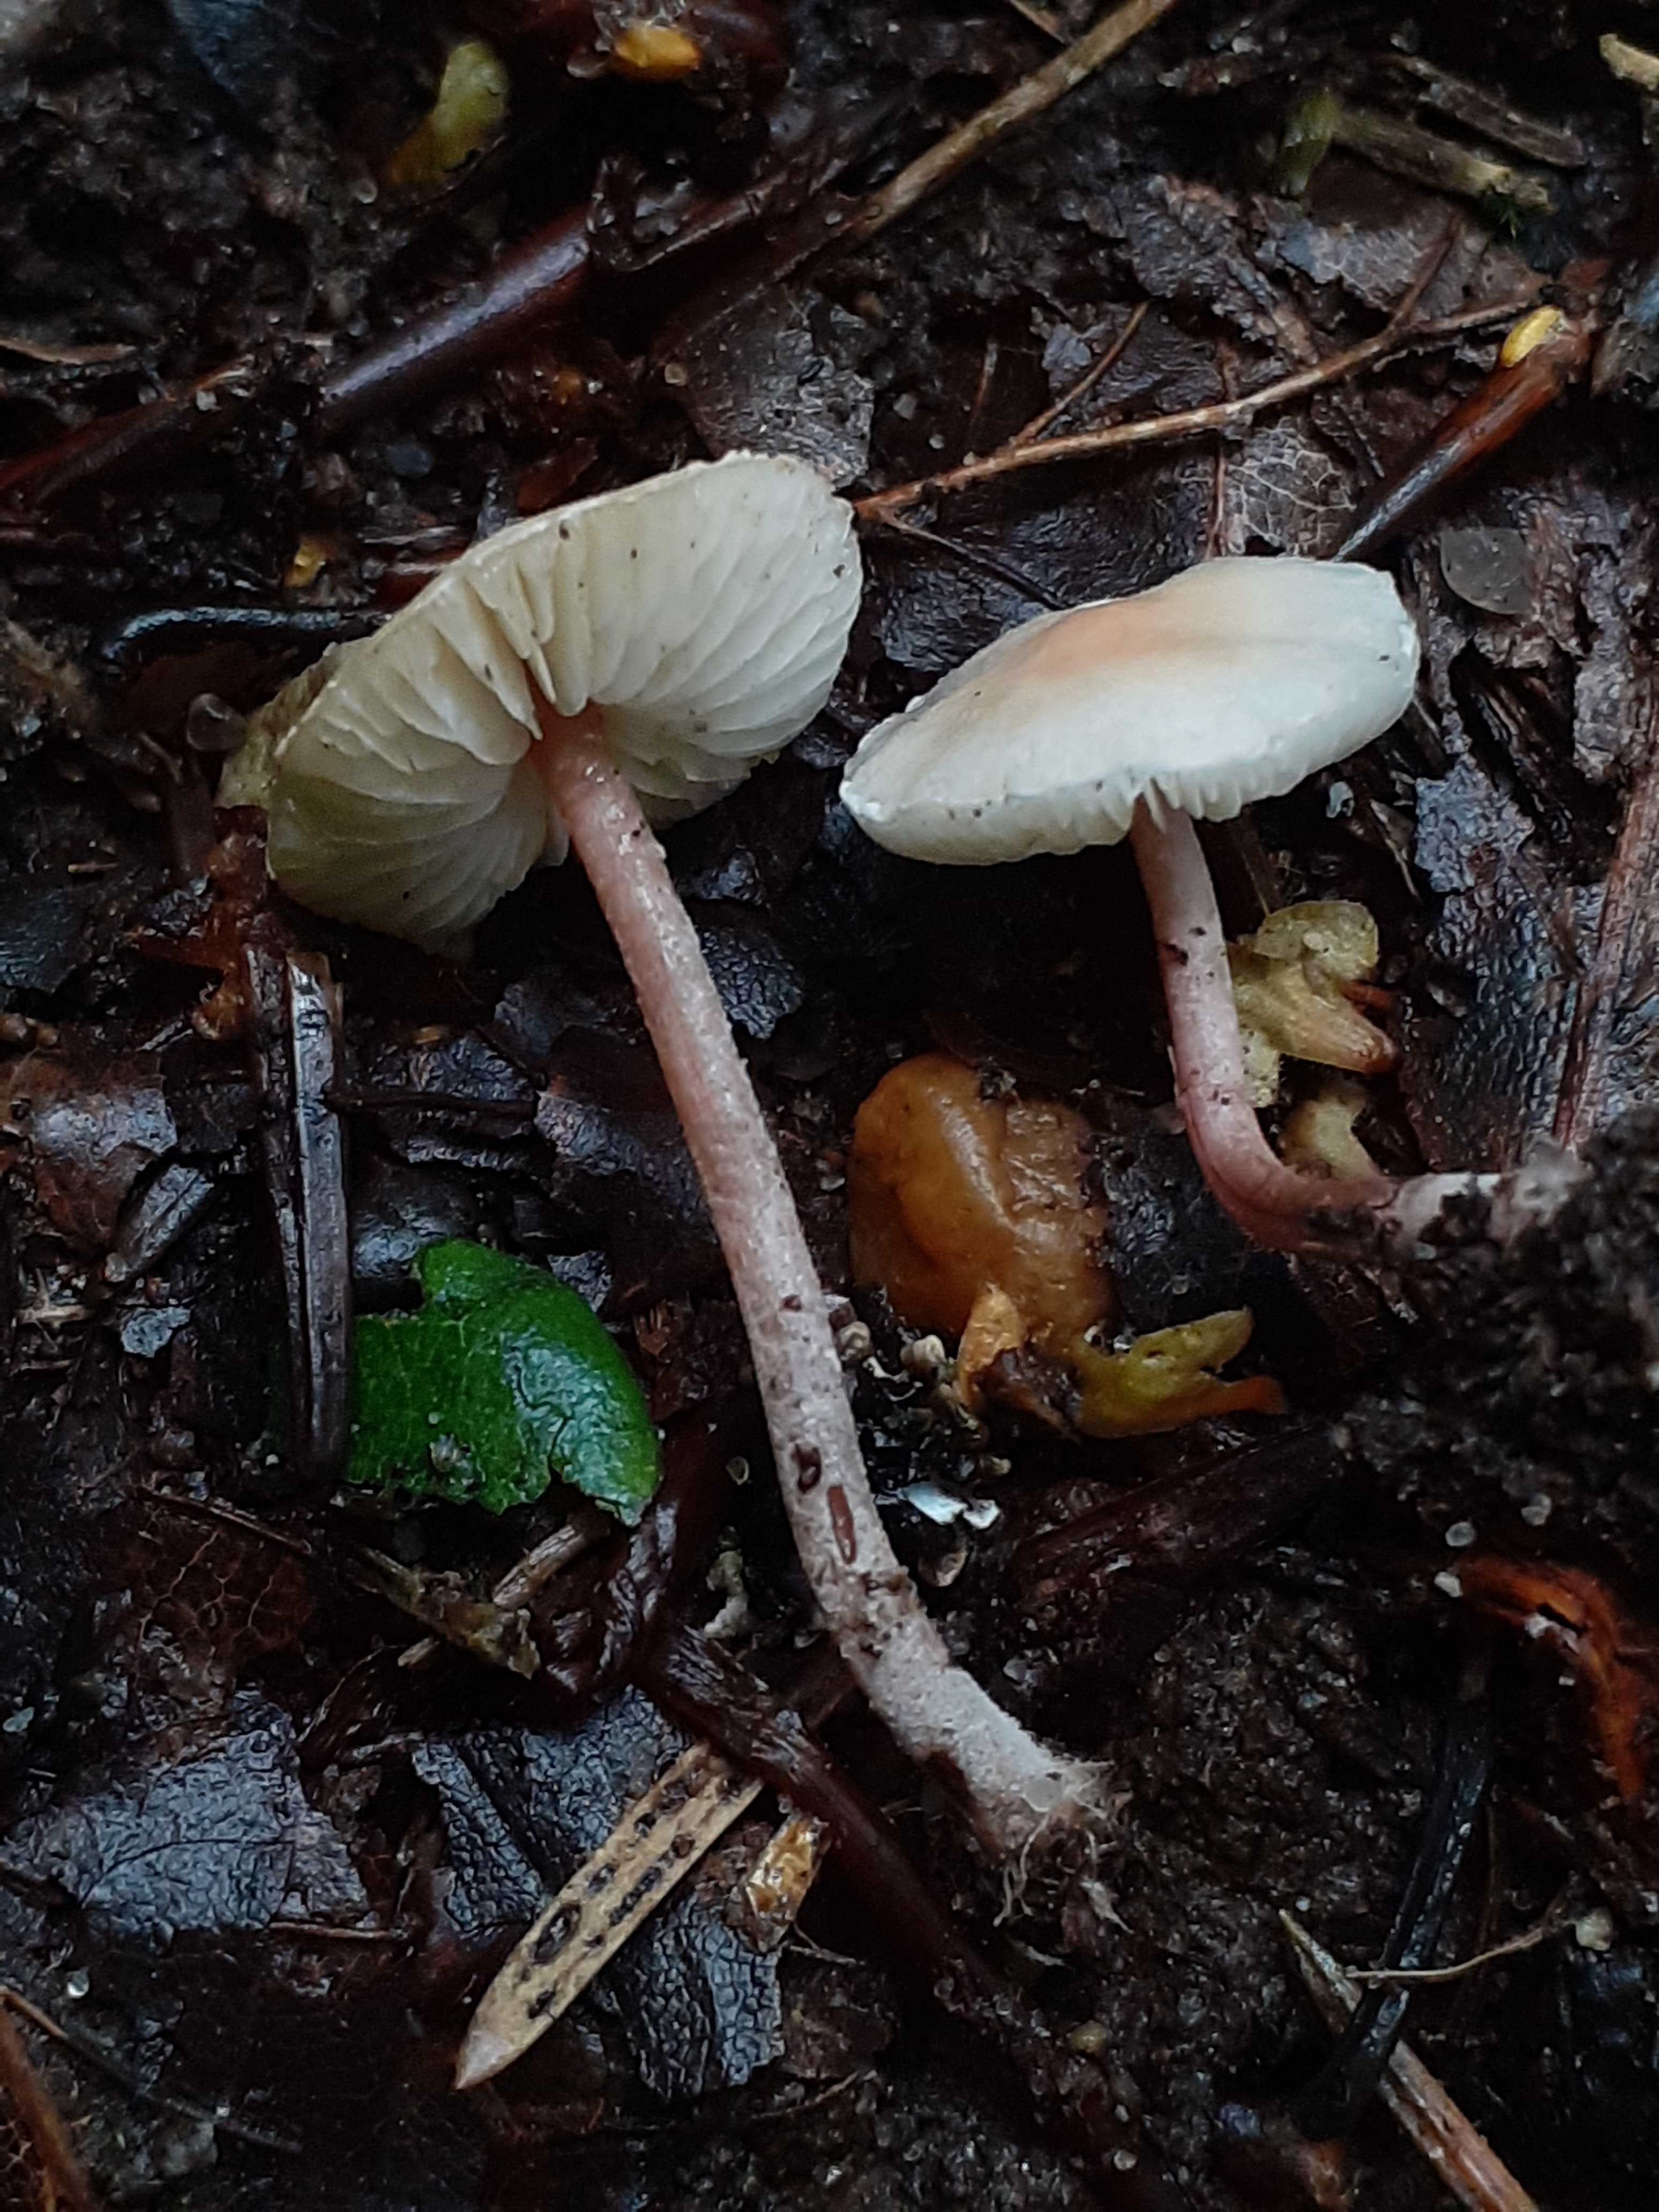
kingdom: Fungi
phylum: Basidiomycota
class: Agaricomycetes
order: Agaricales
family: Agaricaceae
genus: Cystolepiota
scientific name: Cystolepiota seminuda
